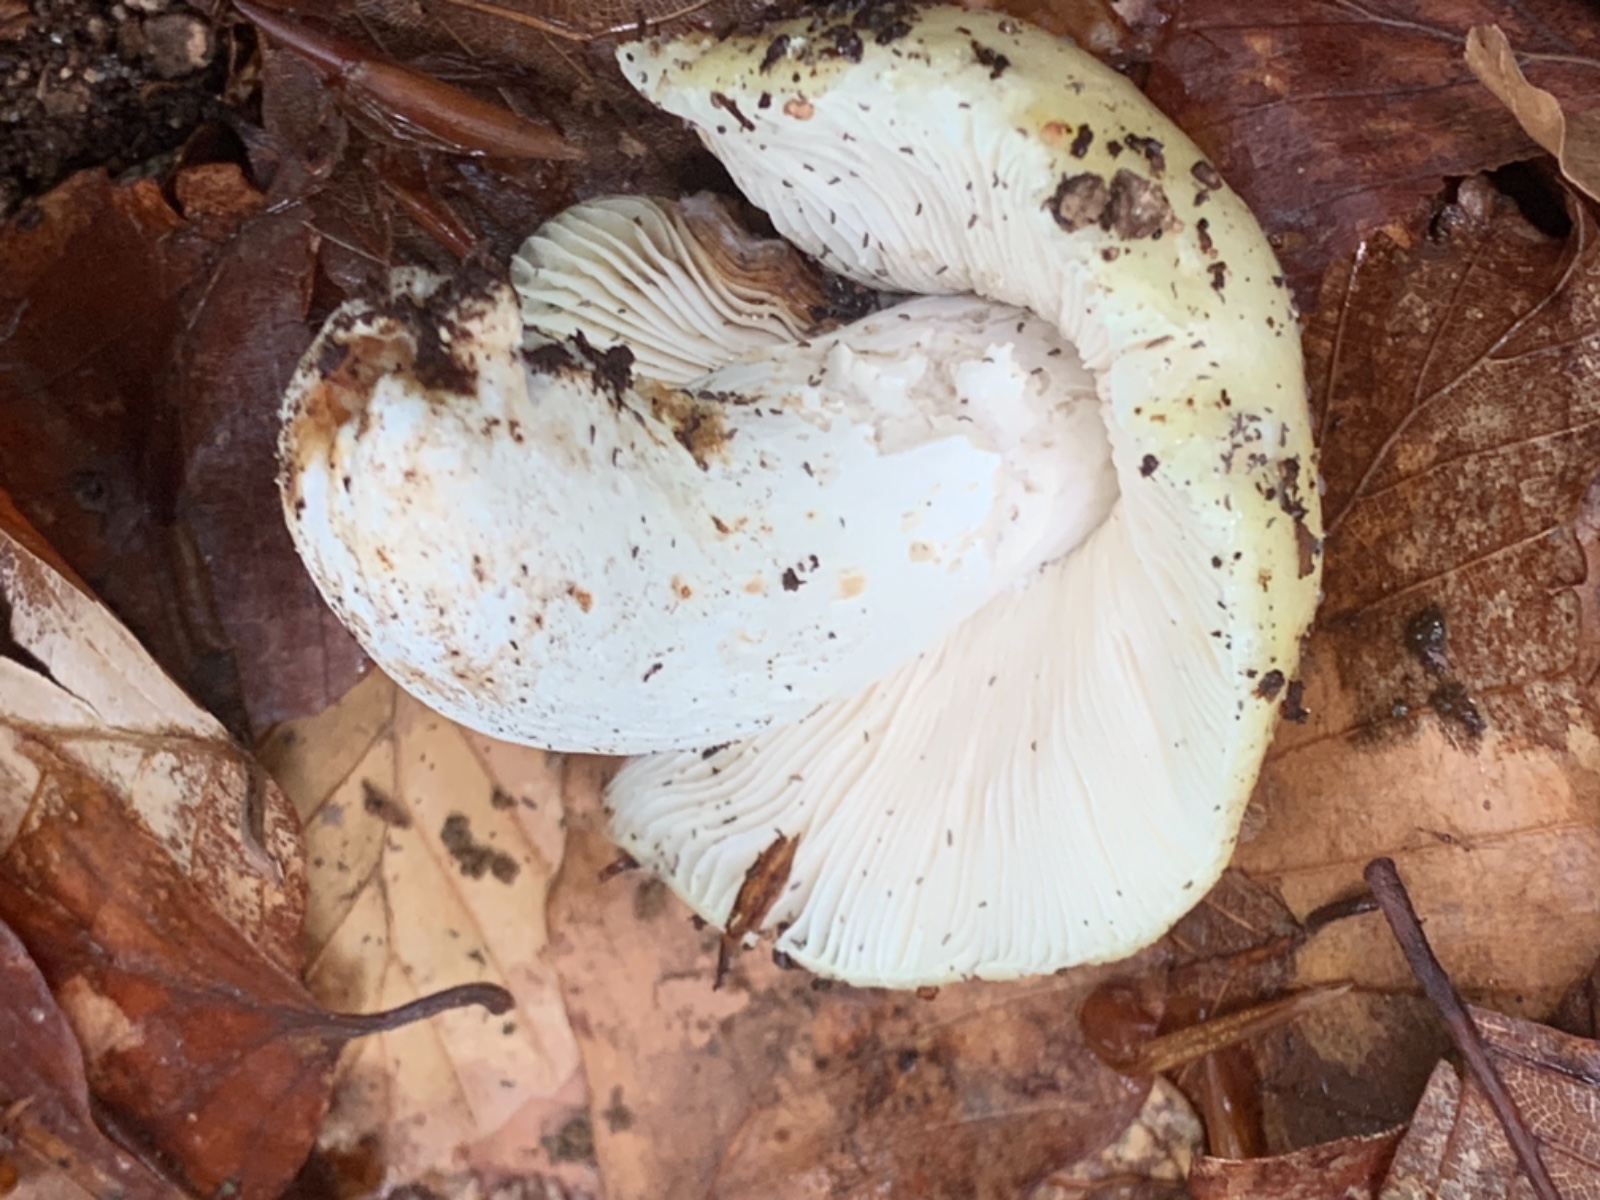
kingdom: Fungi
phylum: Basidiomycota
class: Agaricomycetes
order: Russulales
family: Russulaceae
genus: Russula
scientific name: Russula violeipes
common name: ferskengul skørhat
